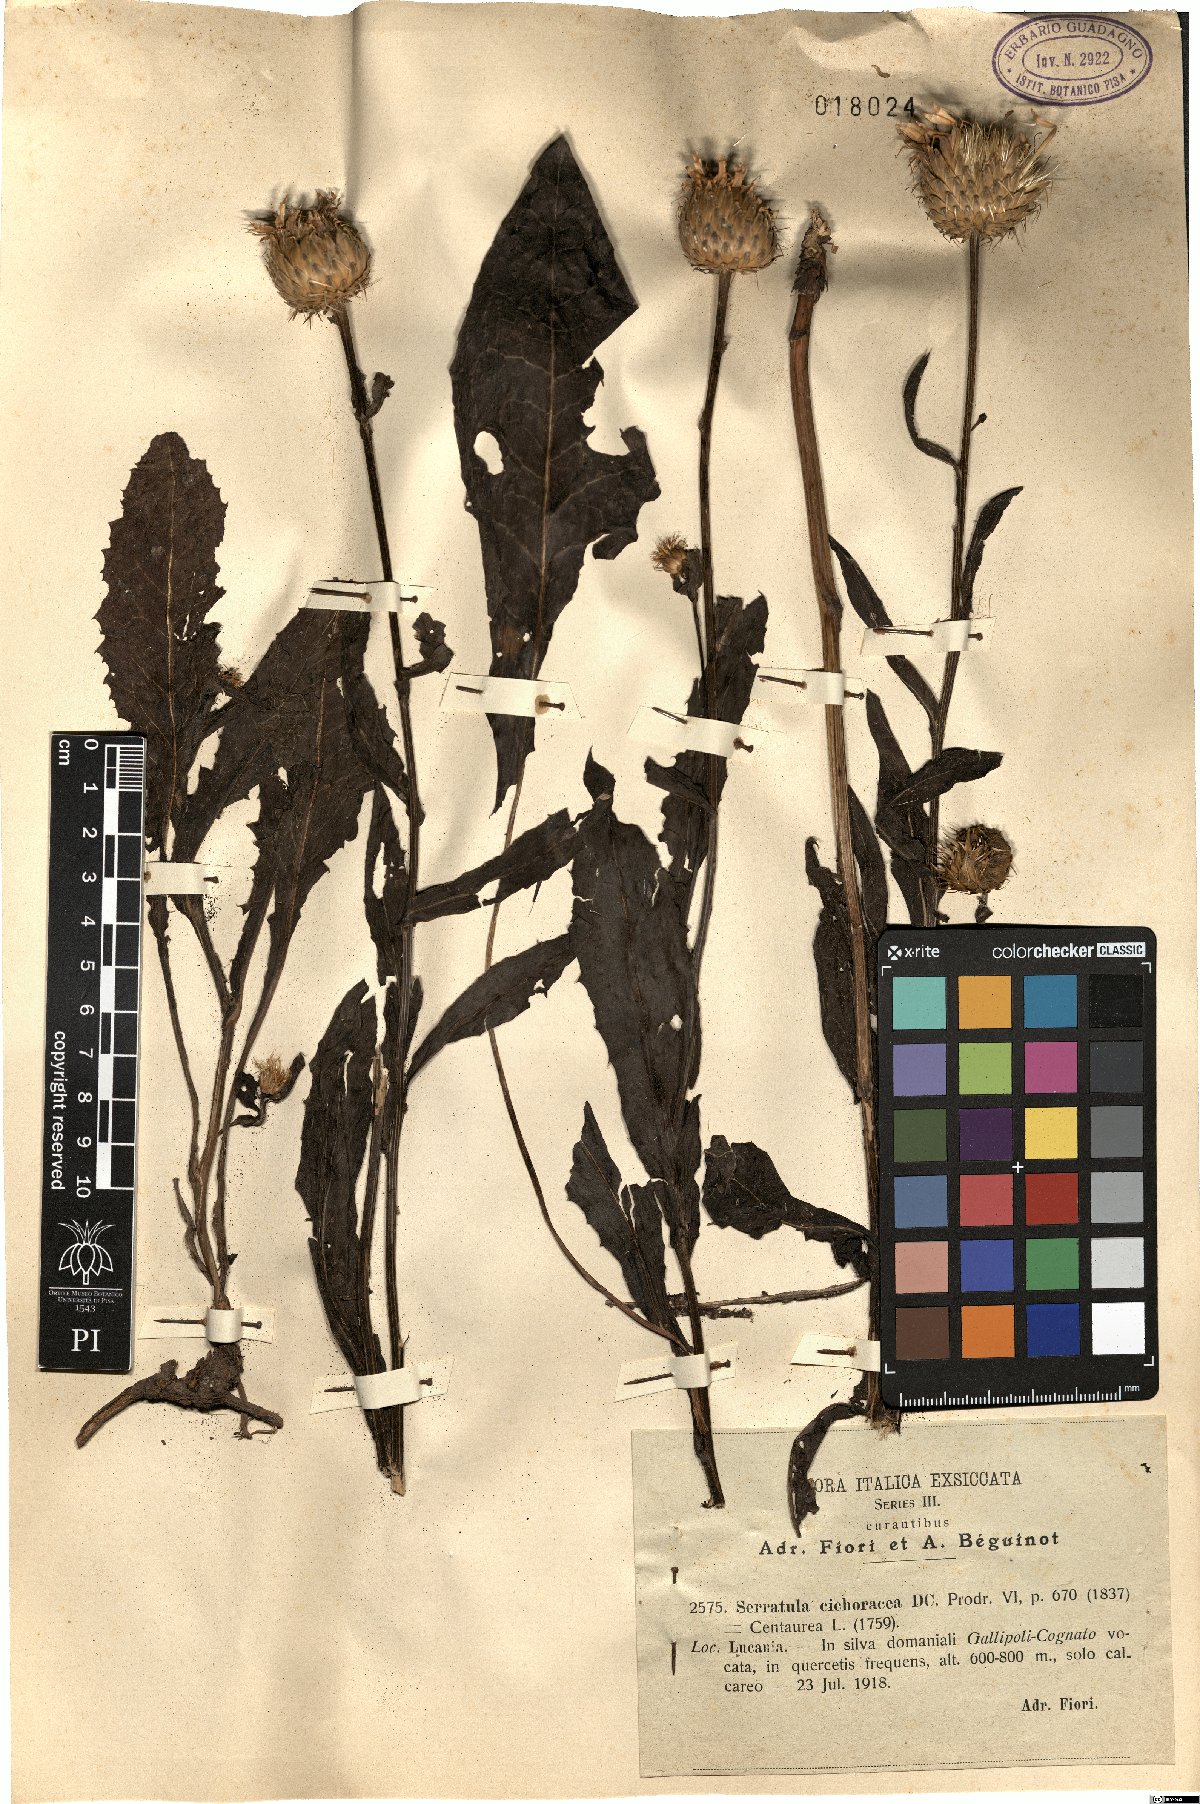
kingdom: Plantae
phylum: Tracheophyta
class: Magnoliopsida
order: Asterales
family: Asteraceae
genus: Klasea
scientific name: Klasea flavescens
